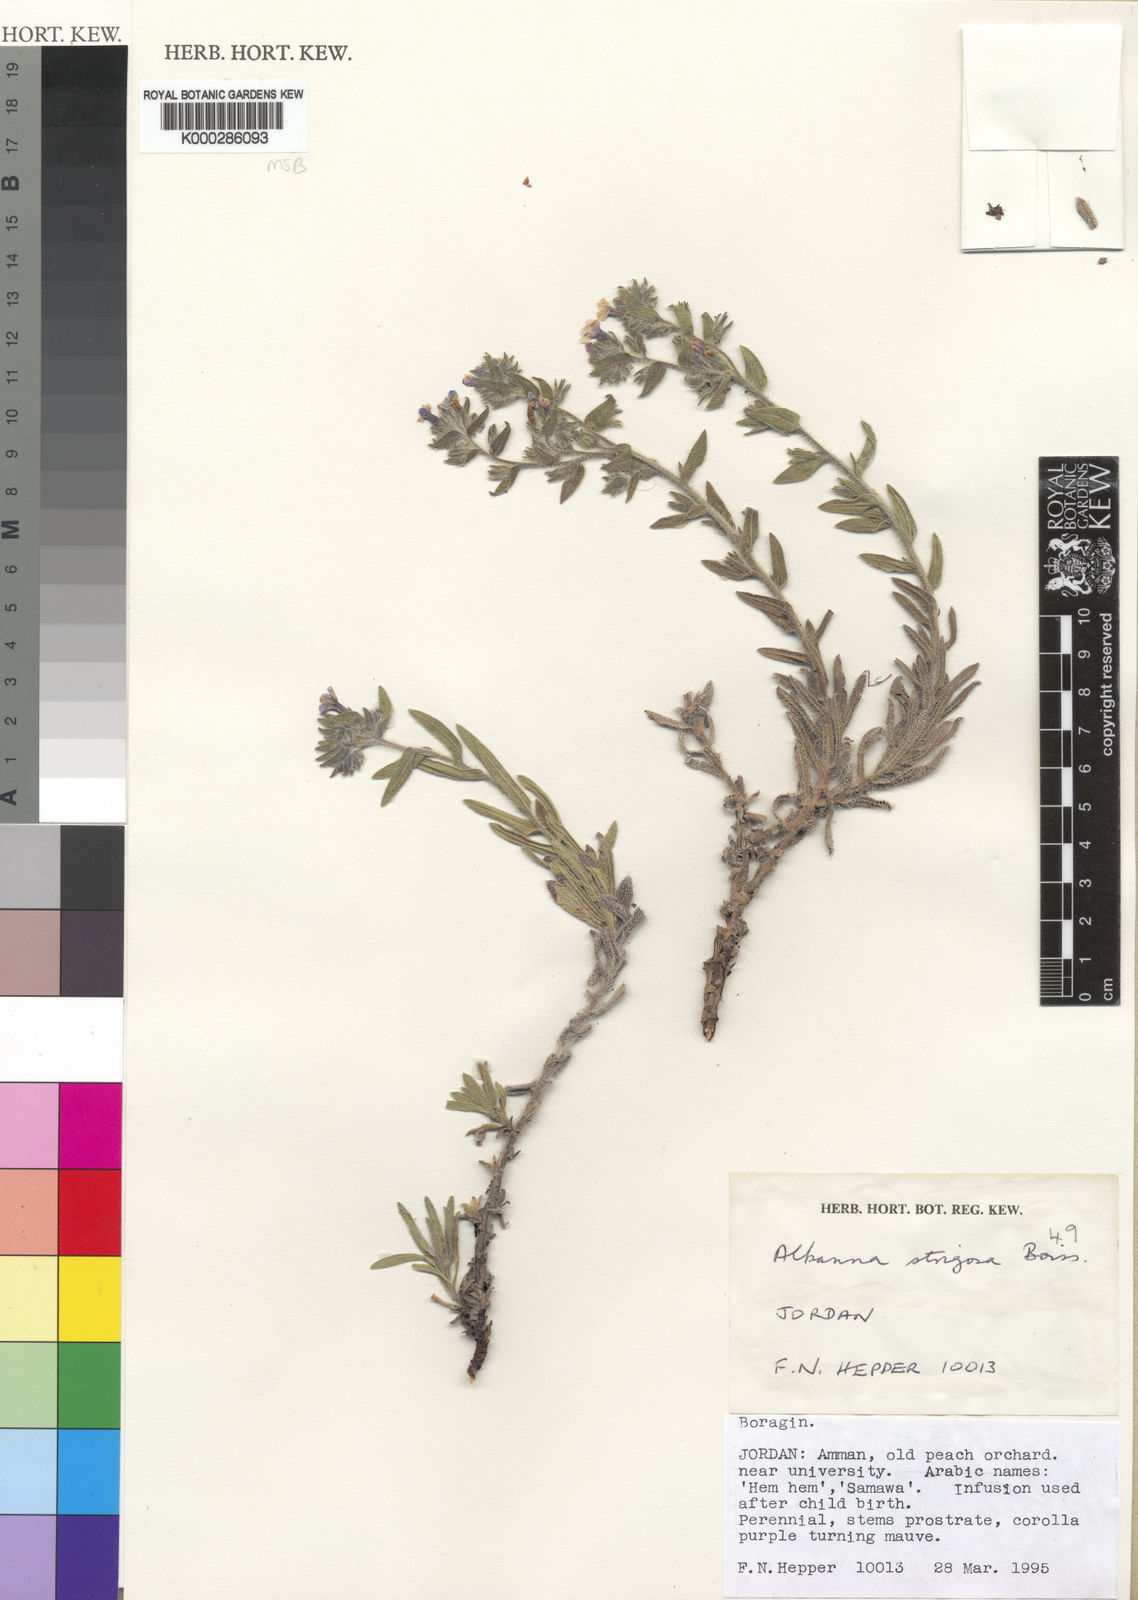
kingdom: Plantae
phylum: Tracheophyta
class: Magnoliopsida
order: Boraginales
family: Boraginaceae
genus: Alkanna
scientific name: Alkanna strigosa
